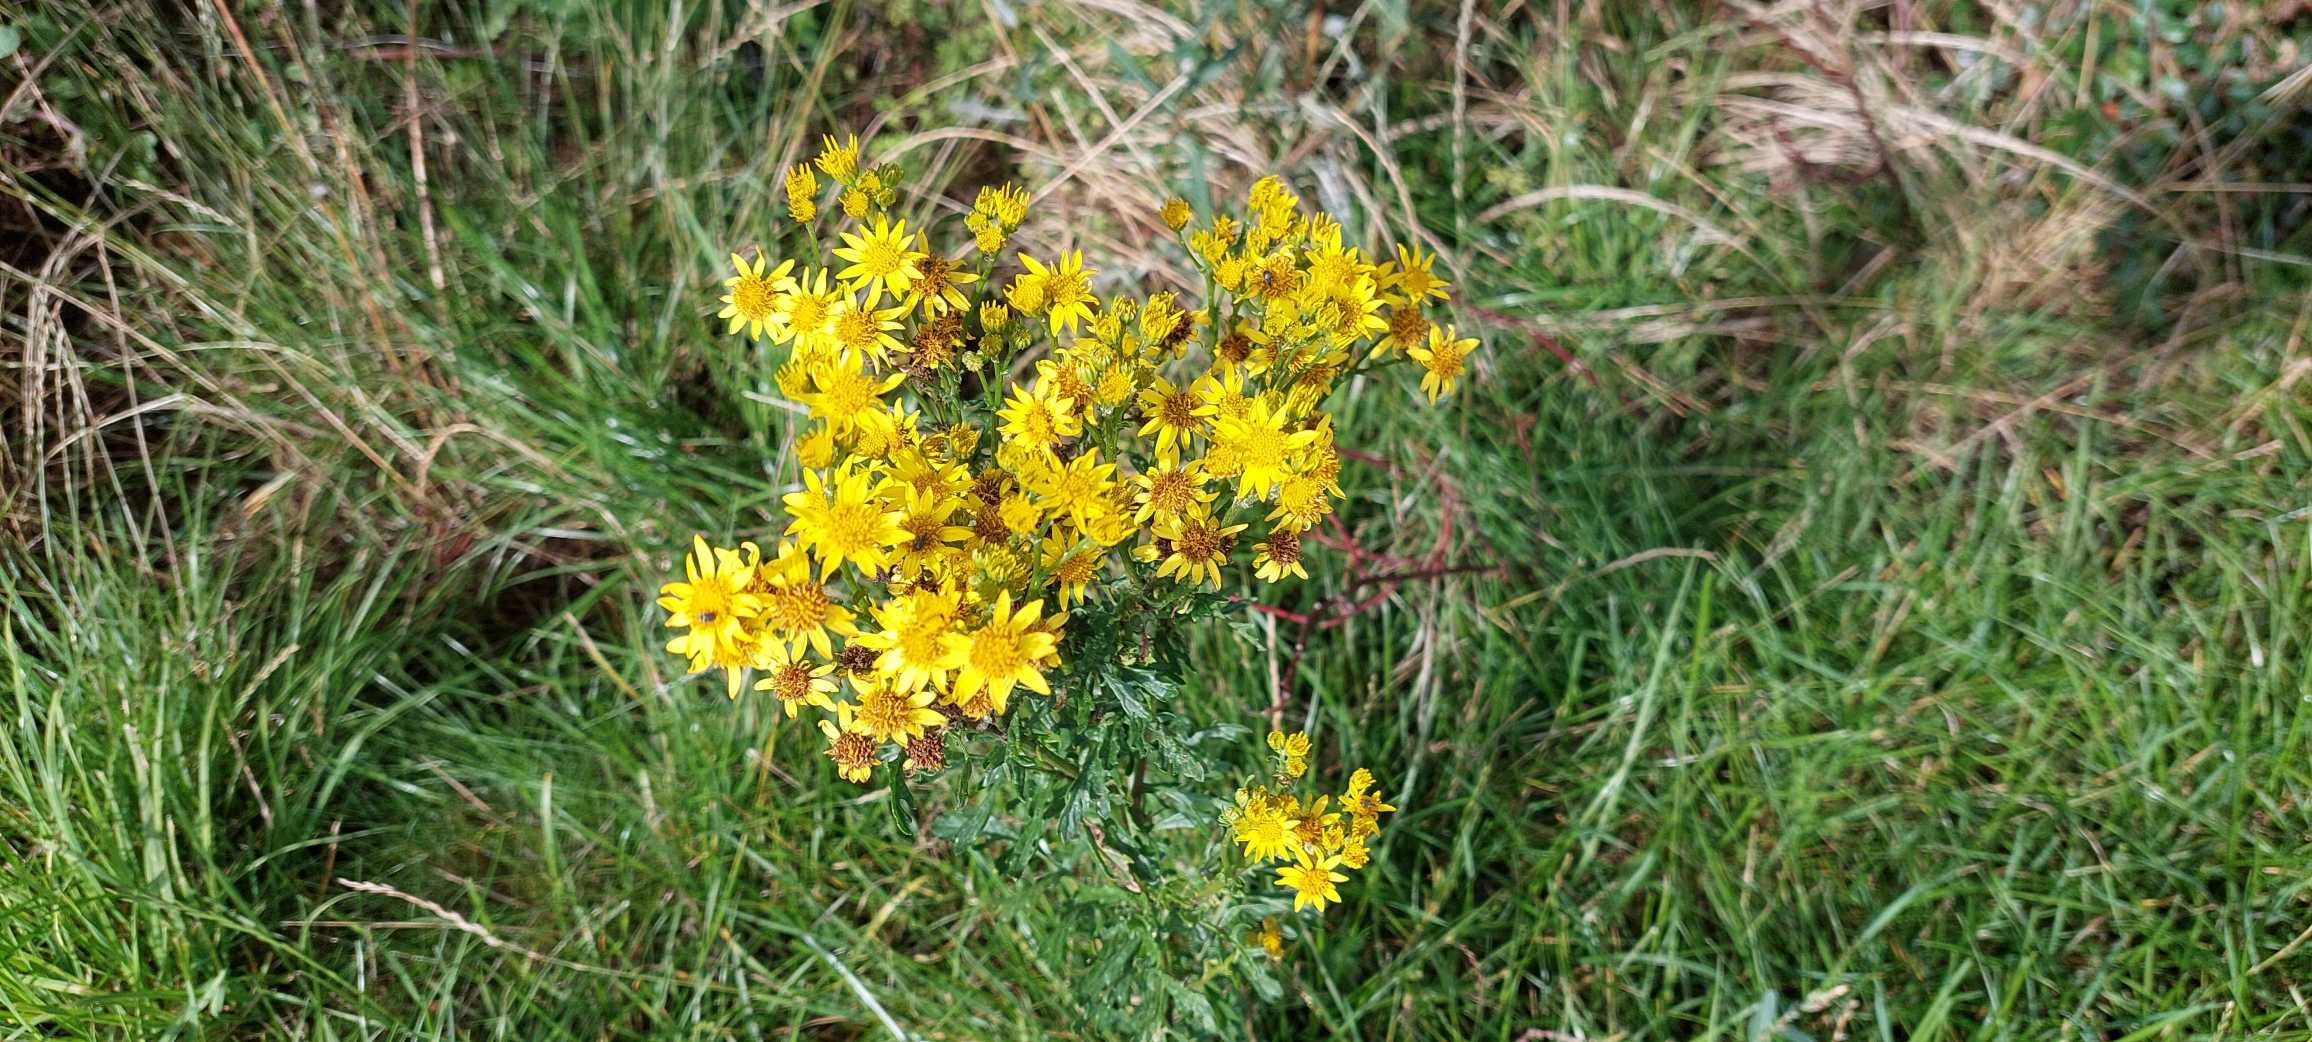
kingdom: Plantae
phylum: Tracheophyta
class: Magnoliopsida
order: Asterales
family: Asteraceae
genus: Jacobaea
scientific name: Jacobaea vulgaris
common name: Eng-brandbæger
